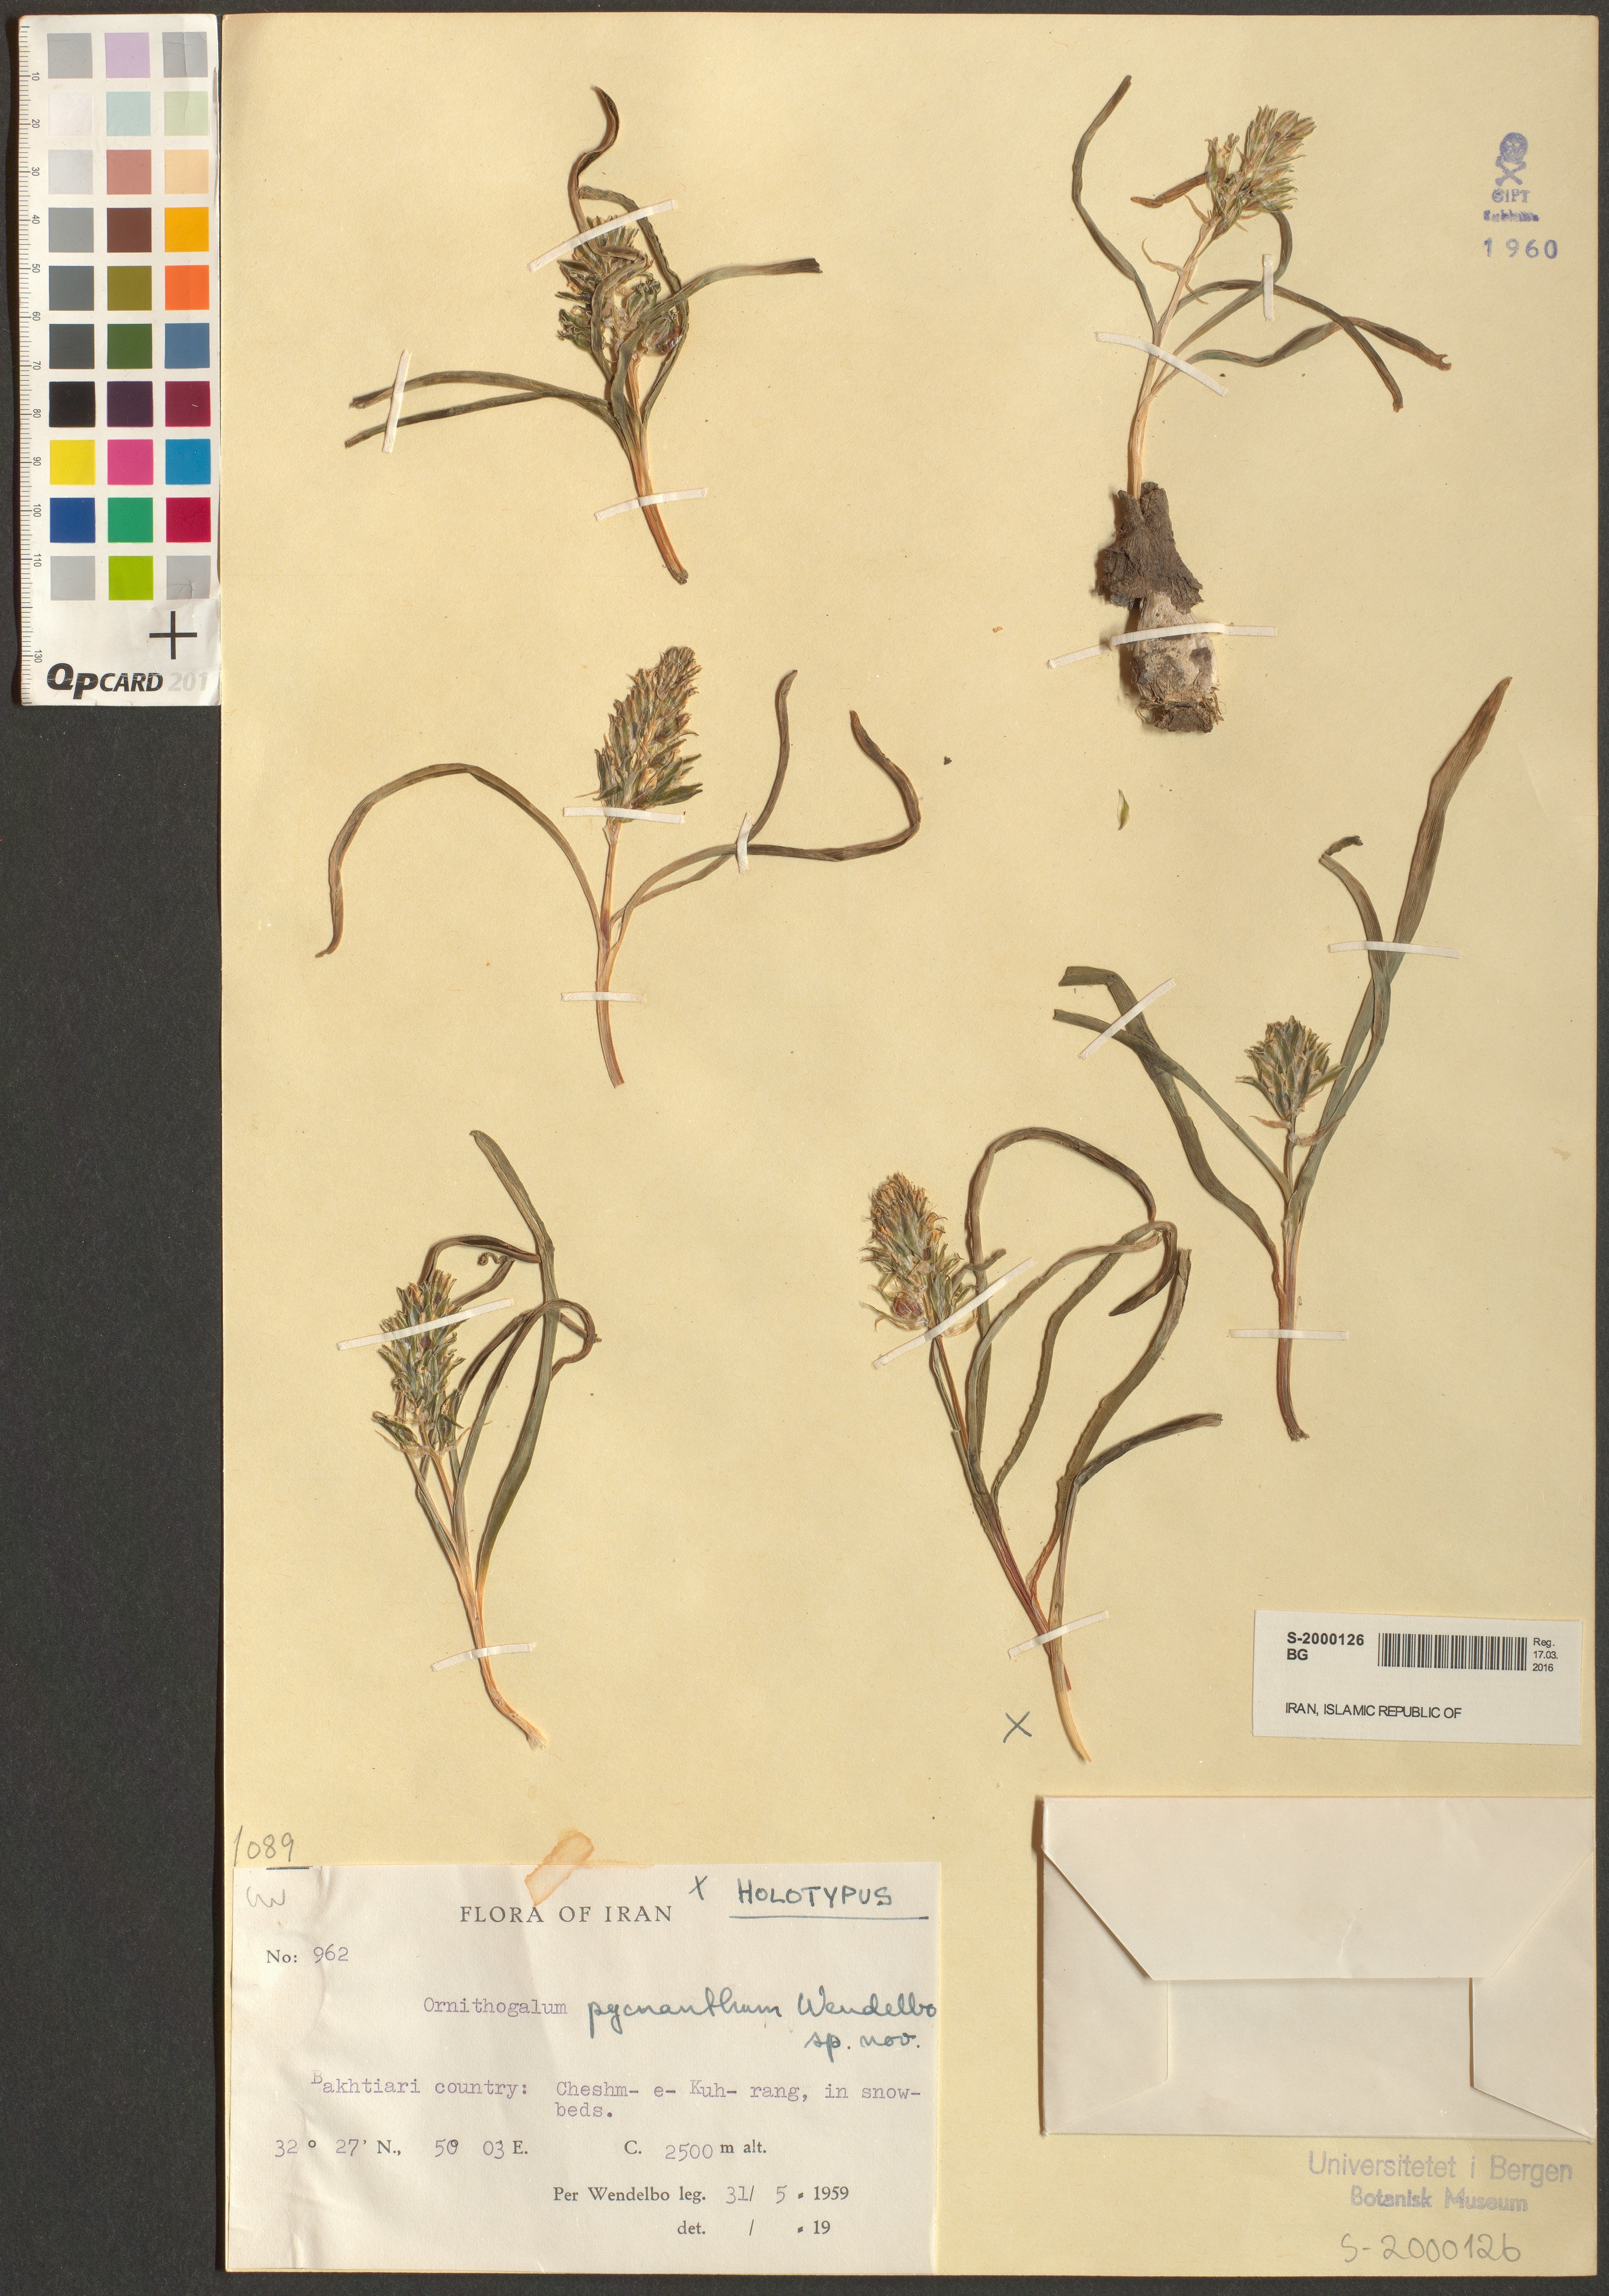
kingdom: Plantae
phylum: Tracheophyta
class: Liliopsida
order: Asparagales
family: Asparagaceae
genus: Ornithogalum
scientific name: Ornithogalum pycnanthum
